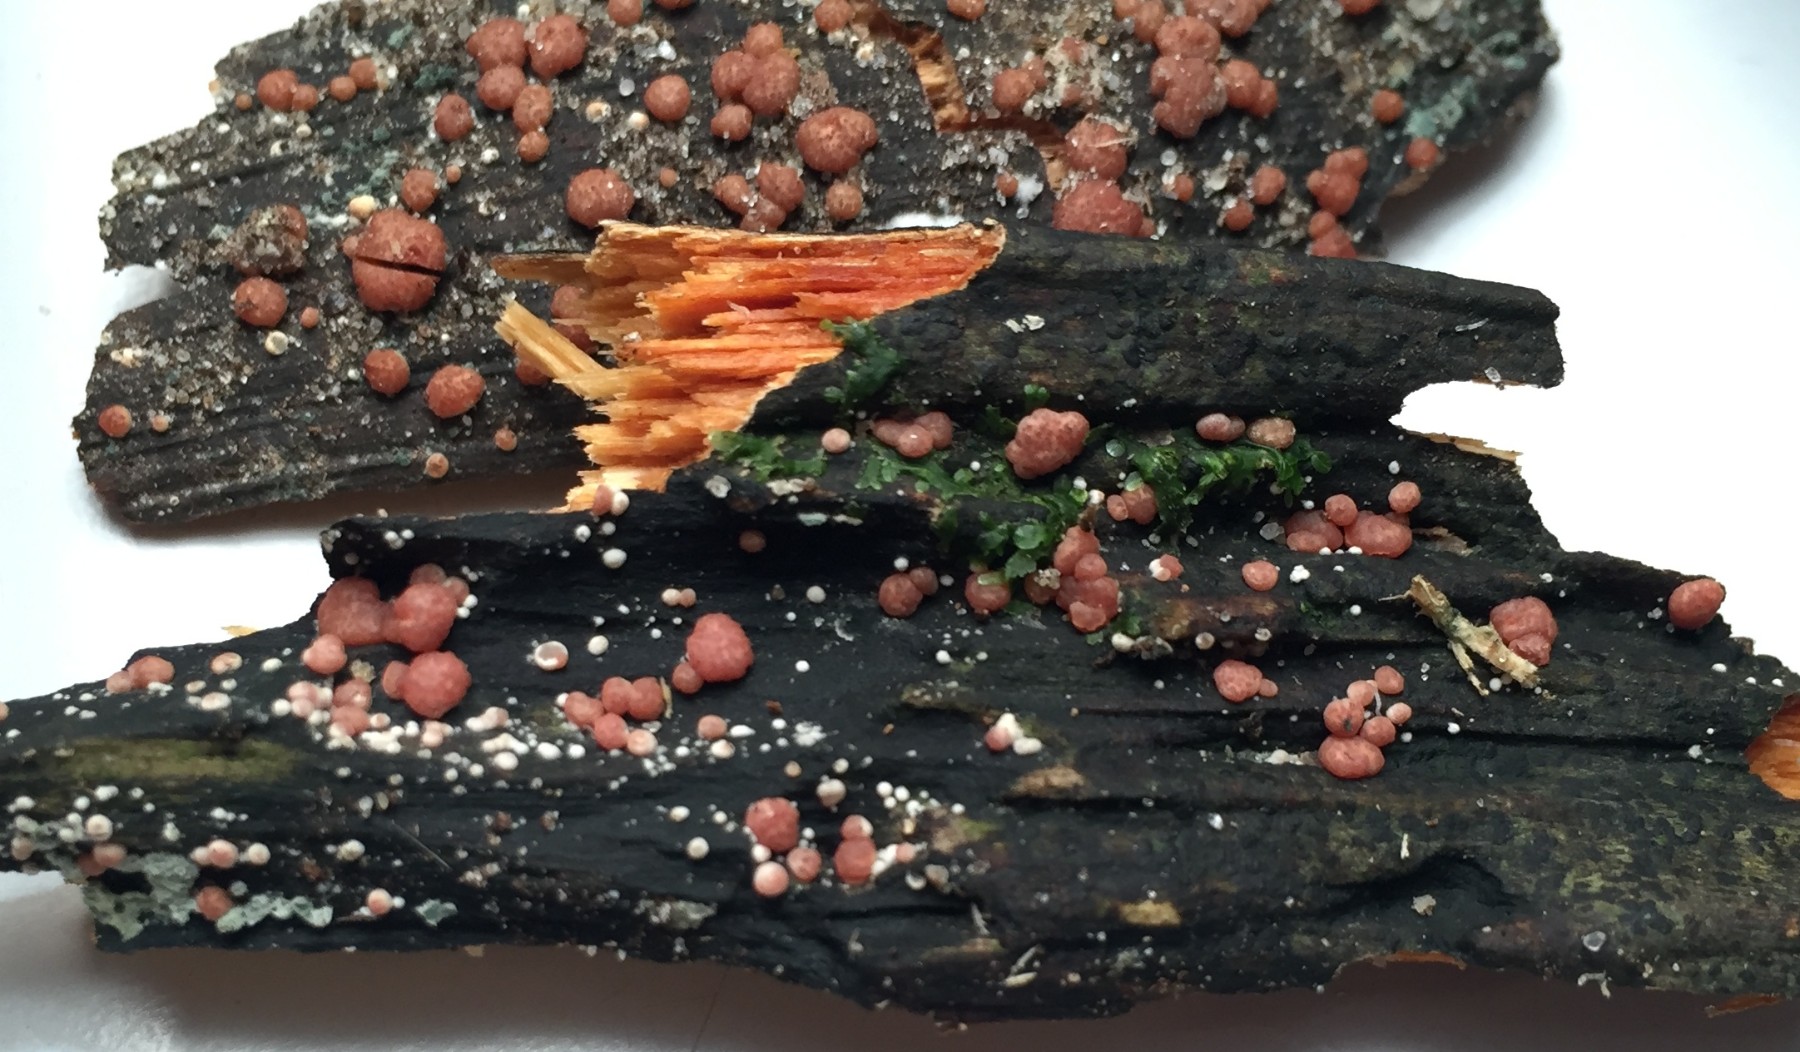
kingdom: Fungi
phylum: Ascomycota
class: Sordariomycetes
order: Hypocreales
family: Hypocreaceae
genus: Trichoderma
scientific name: Trichoderma europaeum
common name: rosabrun kødkerne
